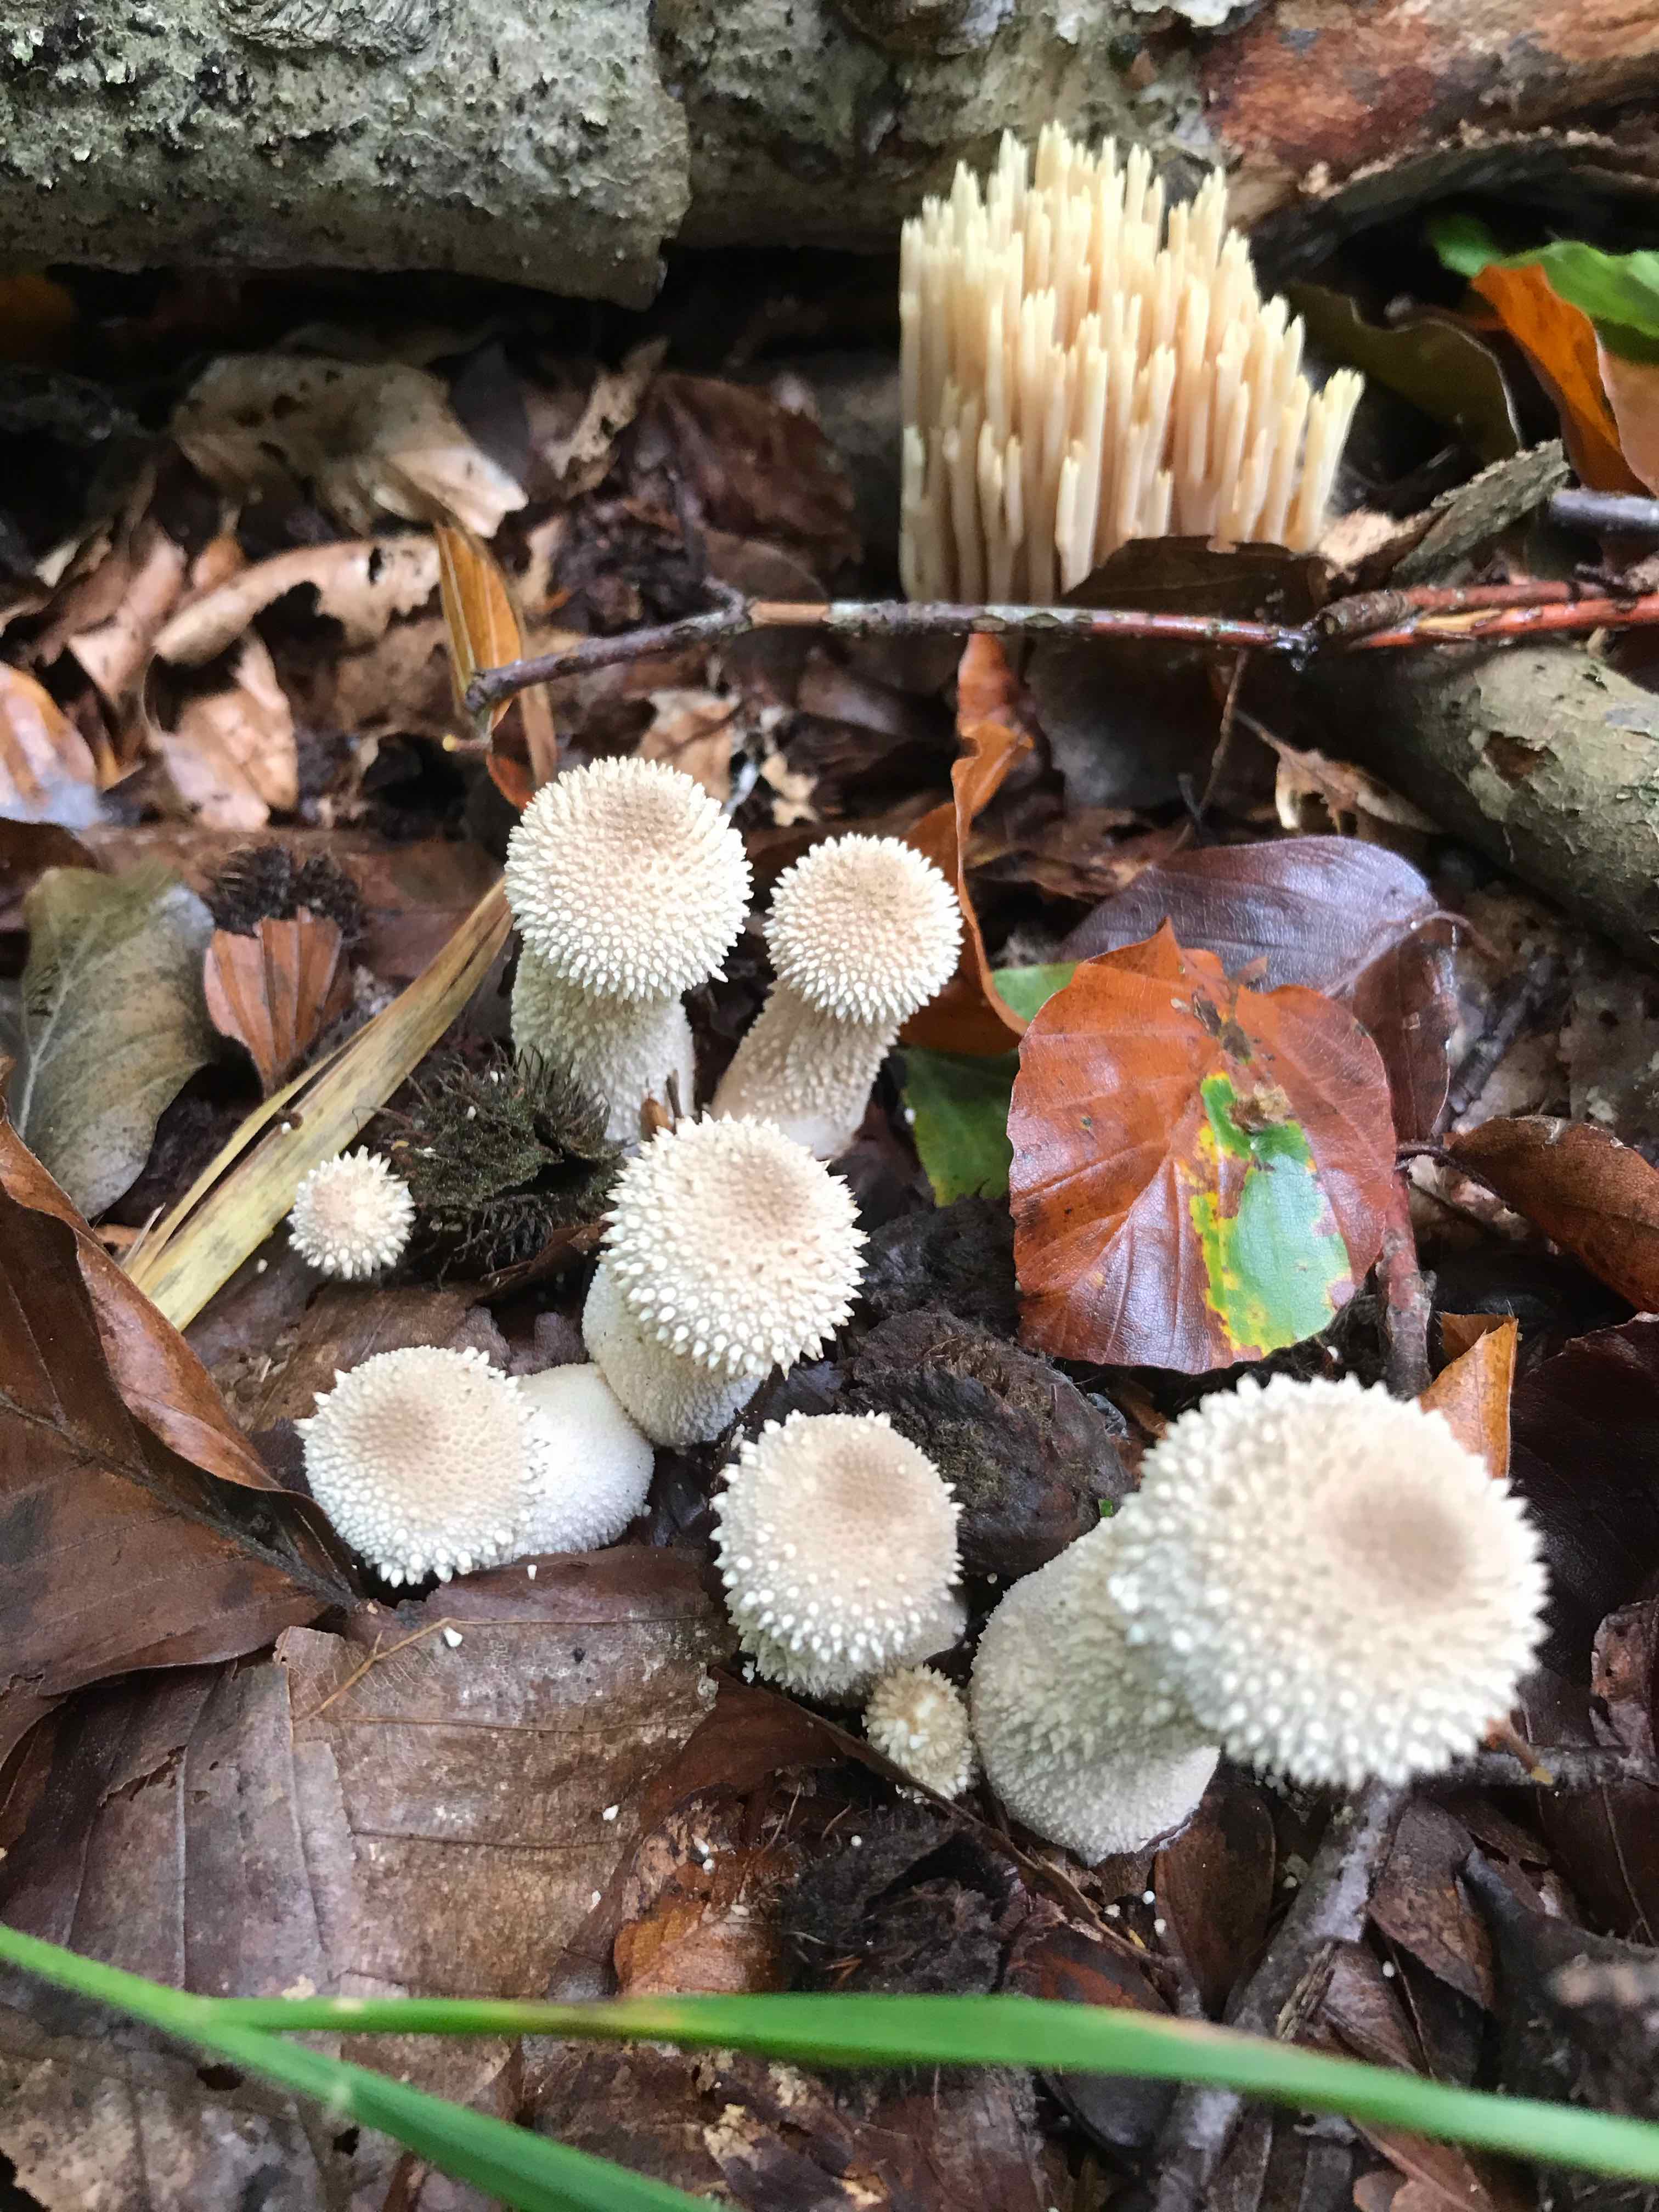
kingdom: Fungi
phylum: Basidiomycota
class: Agaricomycetes
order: Agaricales
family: Lycoperdaceae
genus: Lycoperdon
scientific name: Lycoperdon perlatum
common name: krystal-støvbold
